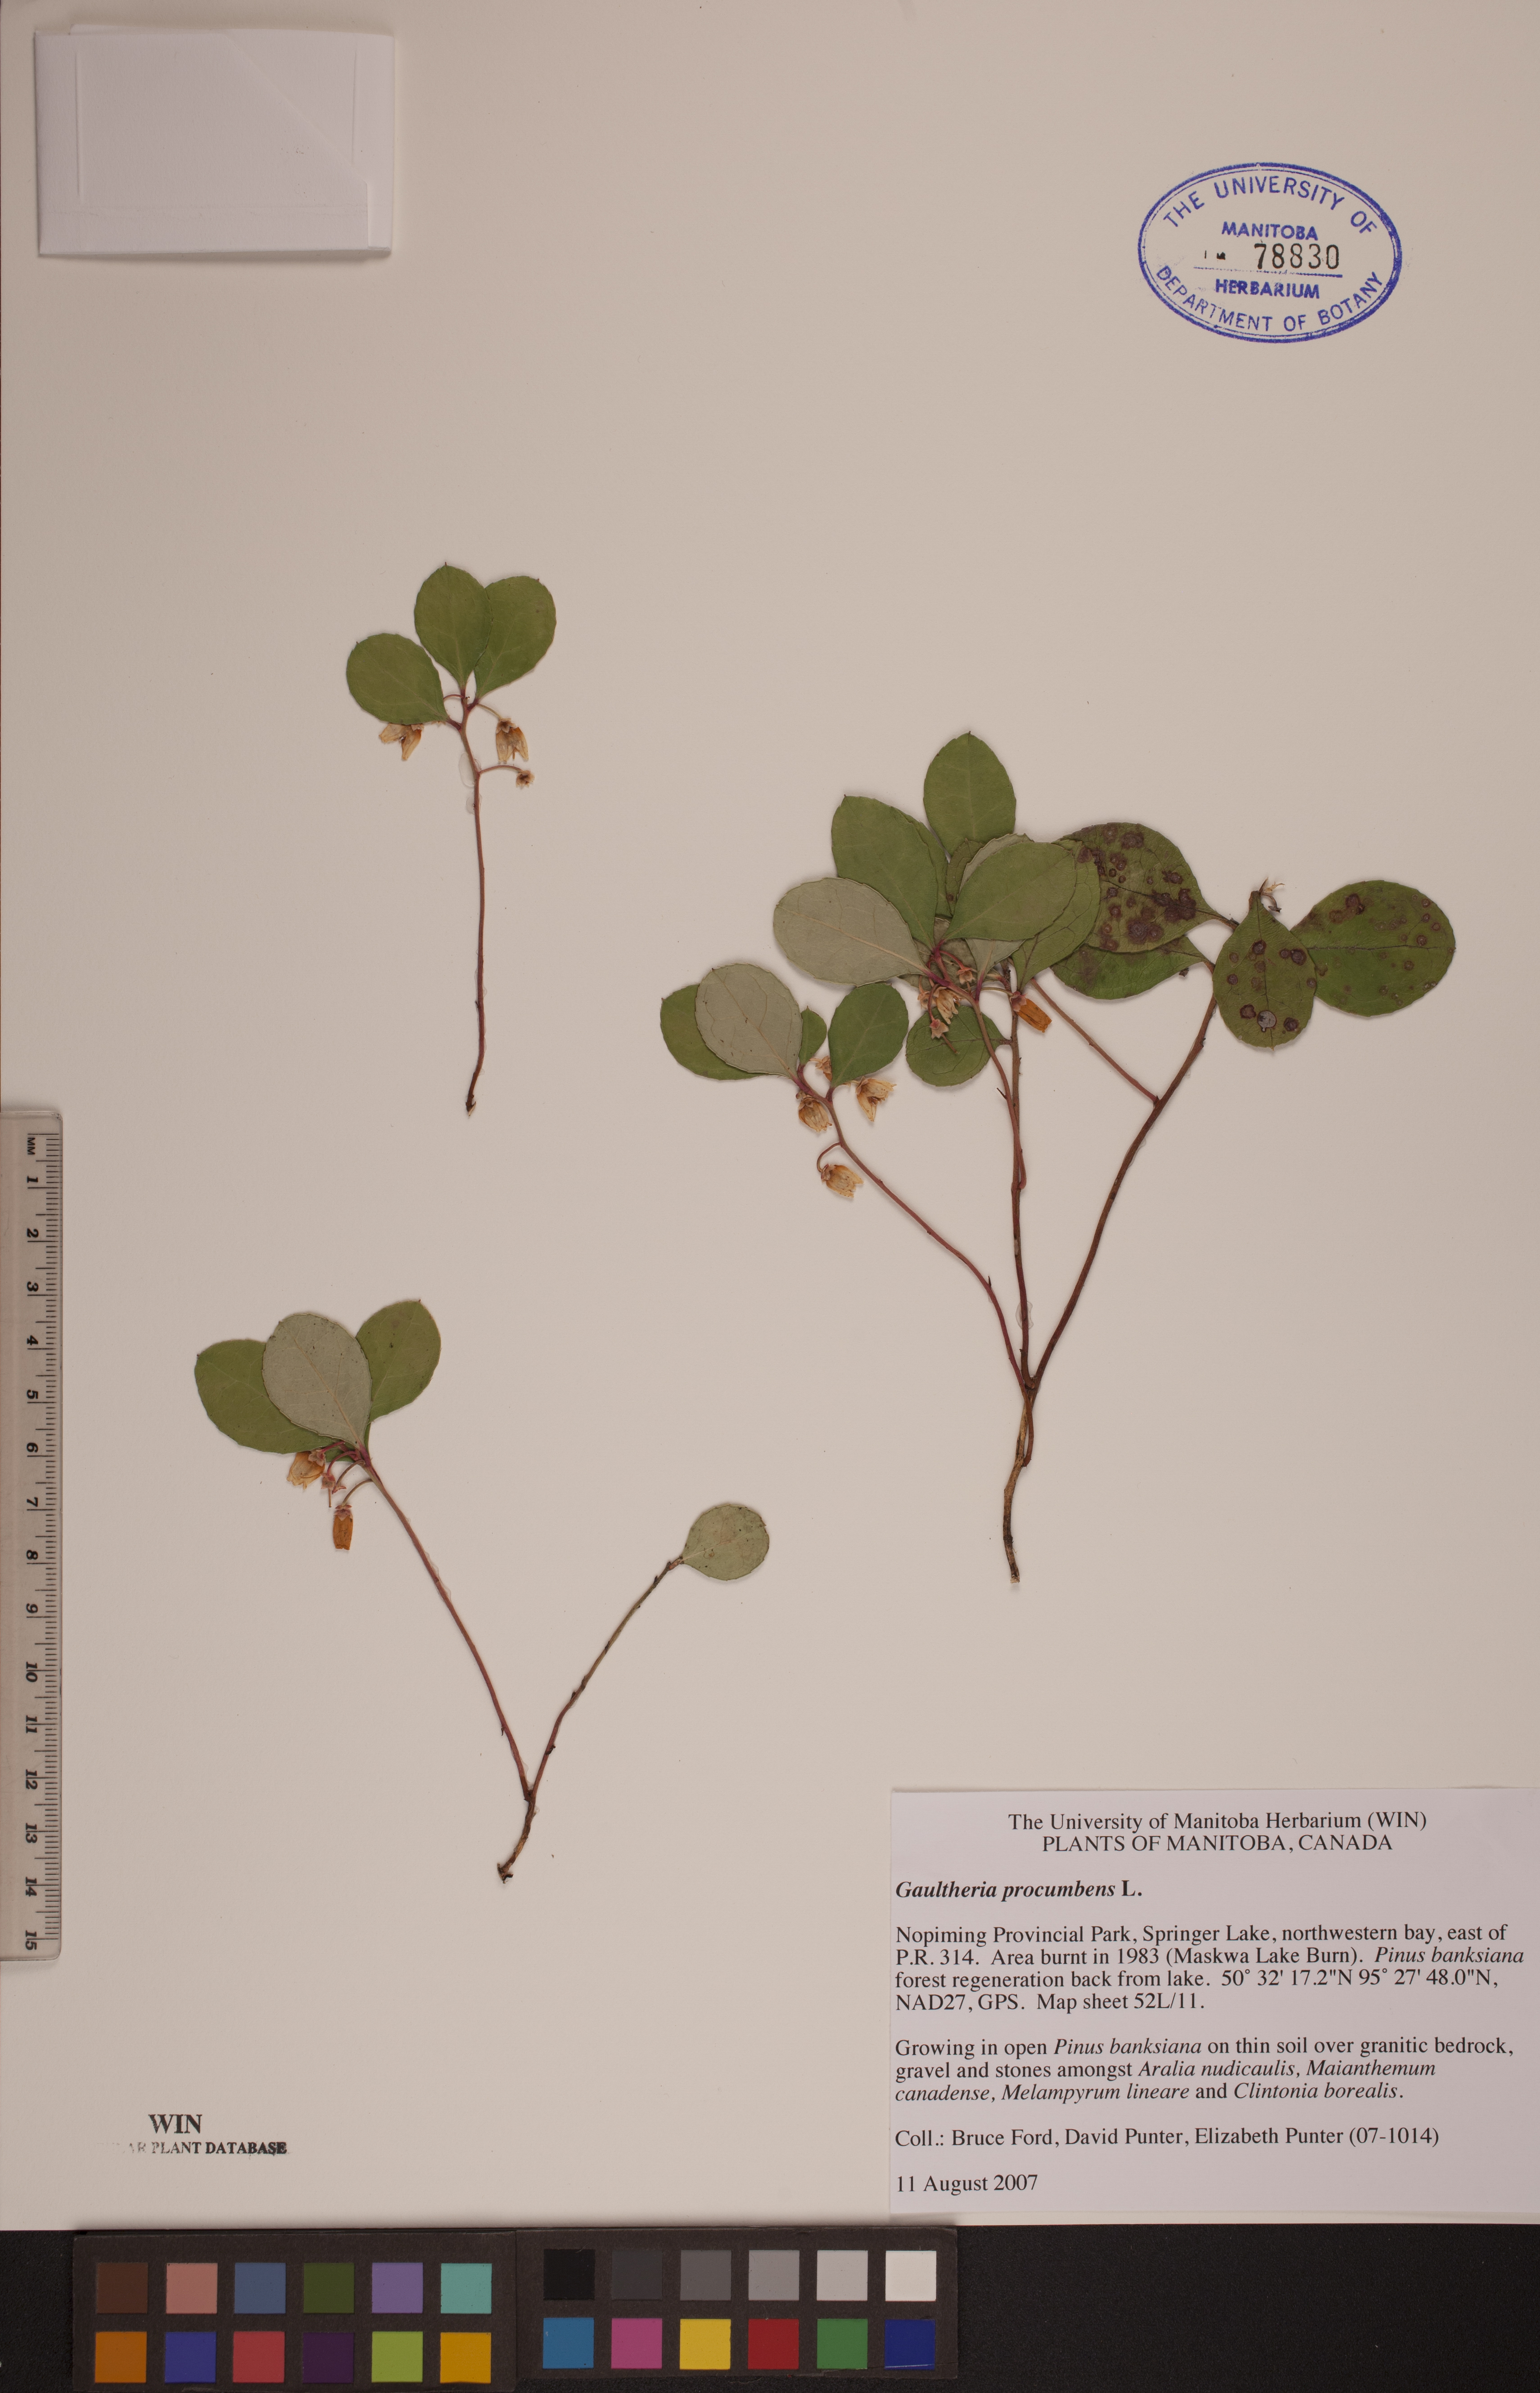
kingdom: Plantae
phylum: Tracheophyta
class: Magnoliopsida
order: Ericales
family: Ericaceae
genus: Gaultheria
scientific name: Gaultheria procumbens
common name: Checkerberry
